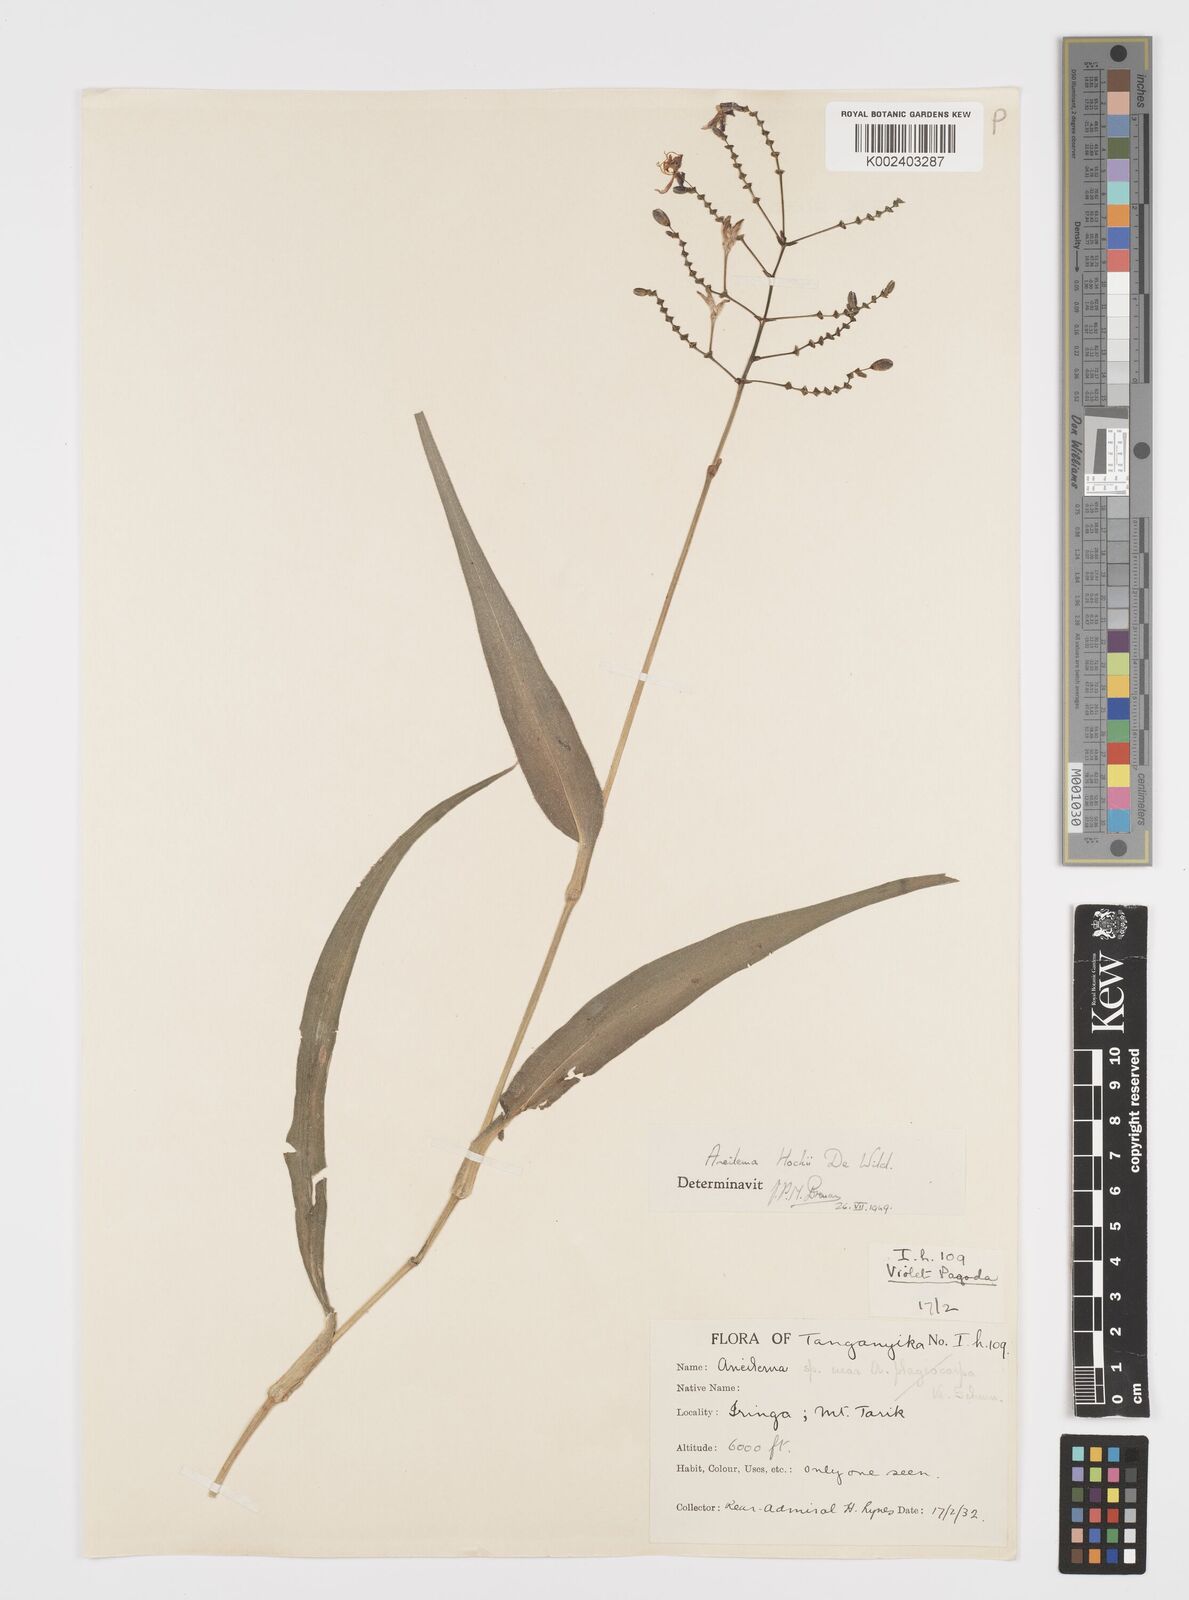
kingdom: Plantae
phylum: Tracheophyta
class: Liliopsida
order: Commelinales
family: Commelinaceae
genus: Aneilema
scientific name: Aneilema hockii
